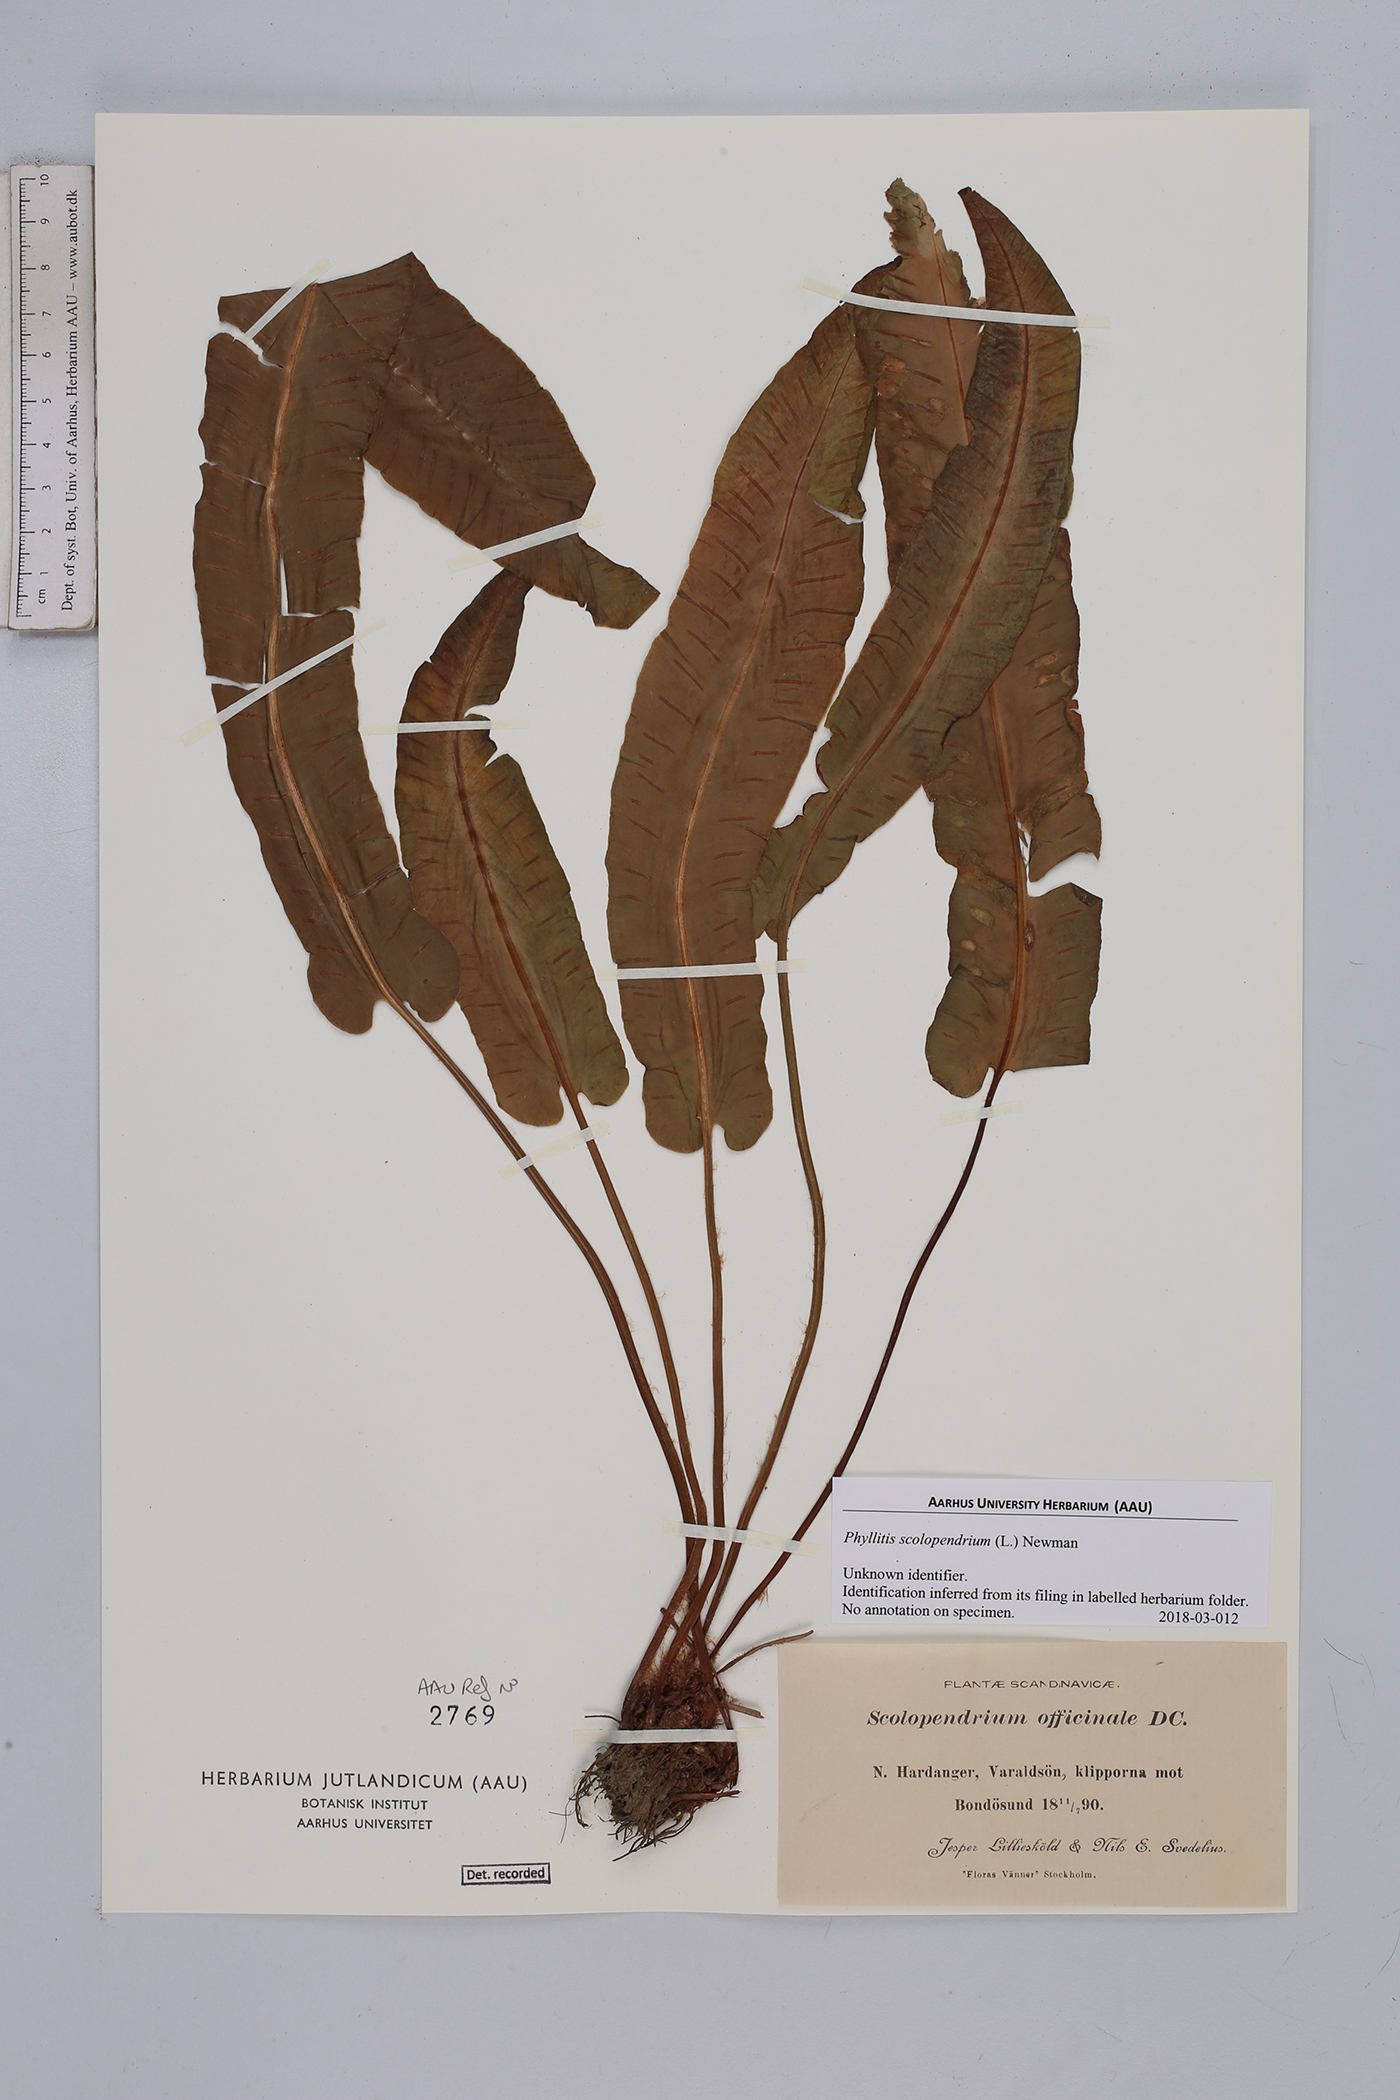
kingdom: Plantae
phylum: Tracheophyta
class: Polypodiopsida
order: Polypodiales
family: Aspleniaceae
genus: Asplenium
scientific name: Asplenium scolopendrium
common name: Hart's-tongue fern
